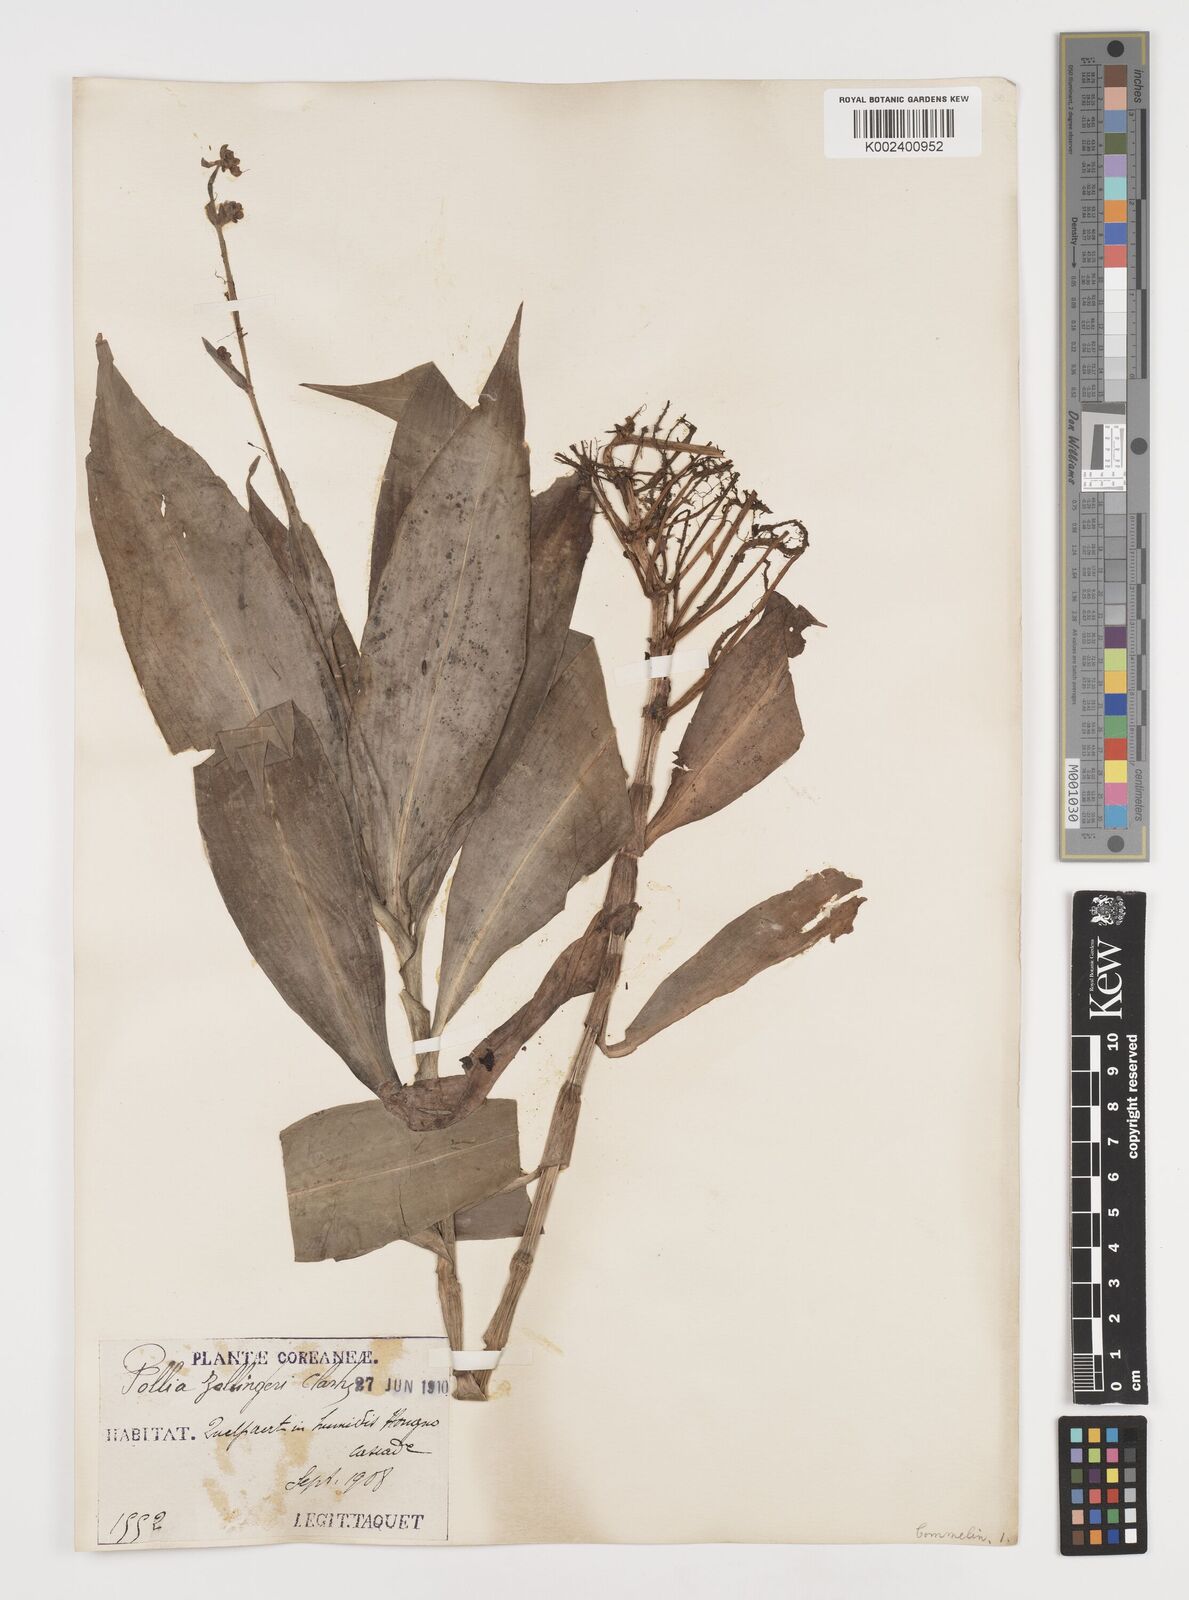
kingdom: Plantae
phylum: Tracheophyta
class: Liliopsida
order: Commelinales
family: Commelinaceae
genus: Pollia
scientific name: Pollia japonica
